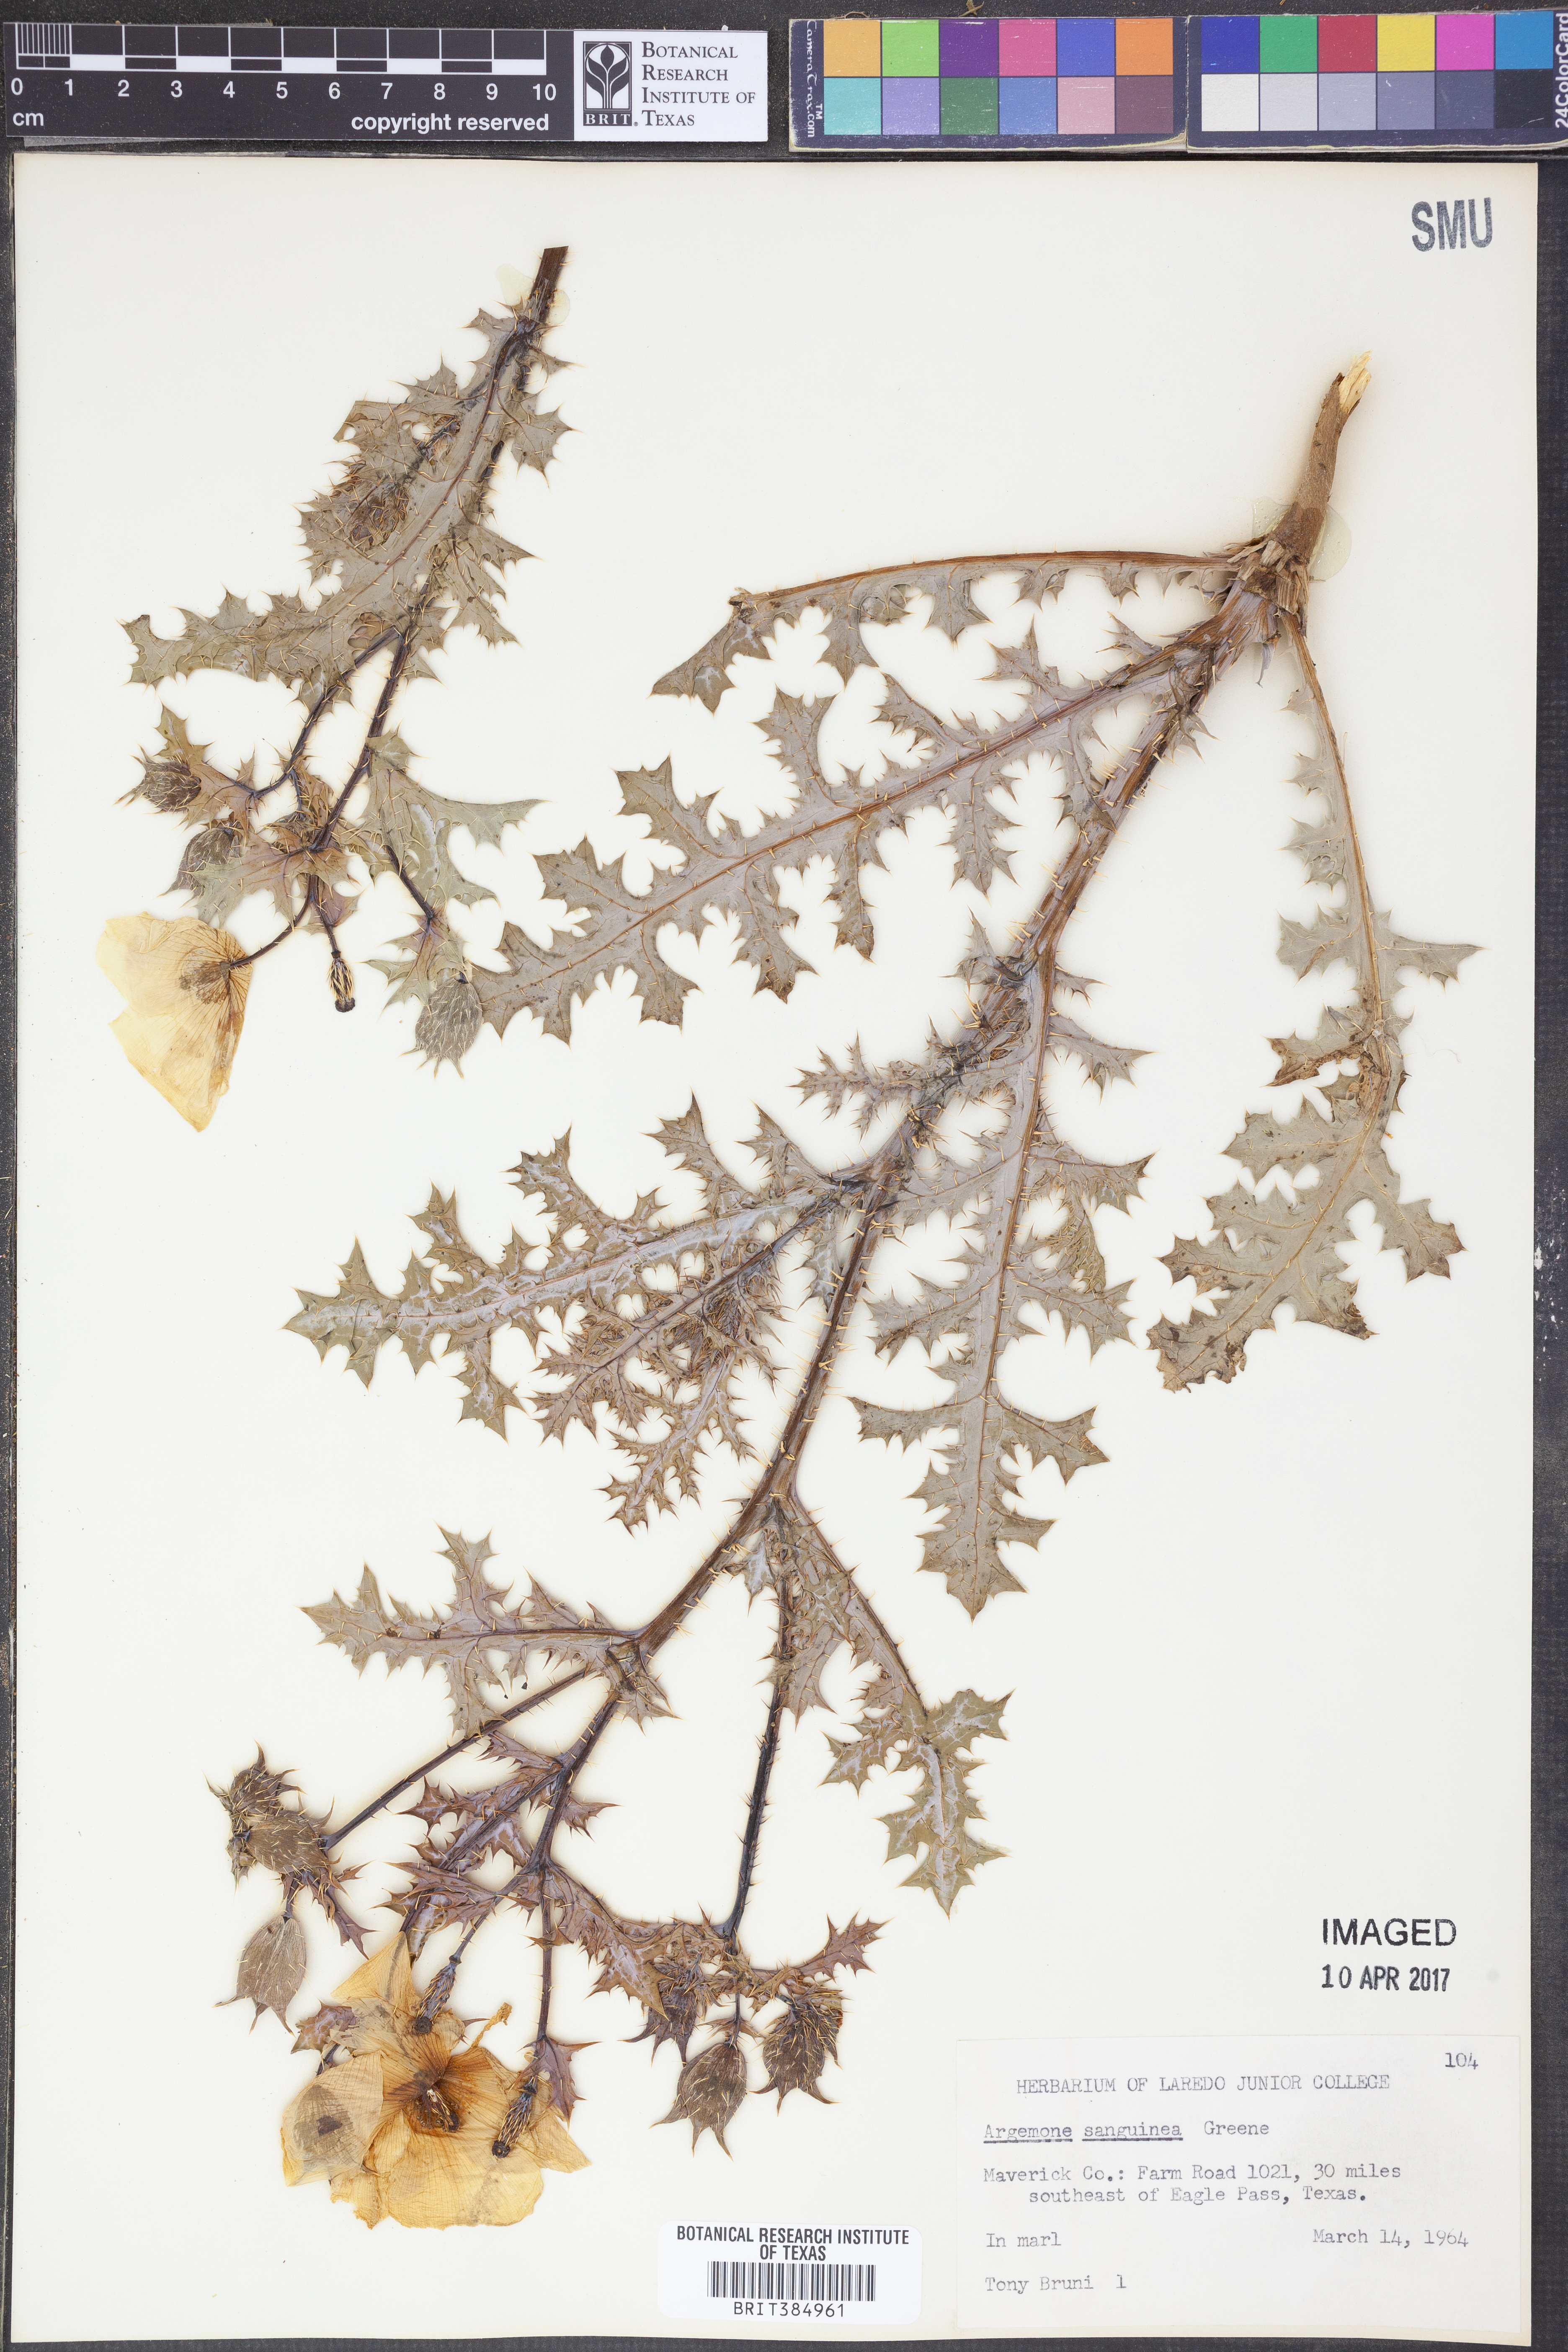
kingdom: Plantae
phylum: Tracheophyta
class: Magnoliopsida
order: Ranunculales
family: Papaveraceae
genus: Argemone
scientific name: Argemone sanguinea
